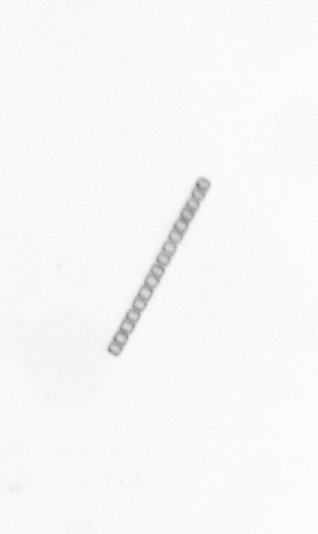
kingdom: Chromista
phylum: Ochrophyta
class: Bacillariophyceae
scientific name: Bacillariophyceae
